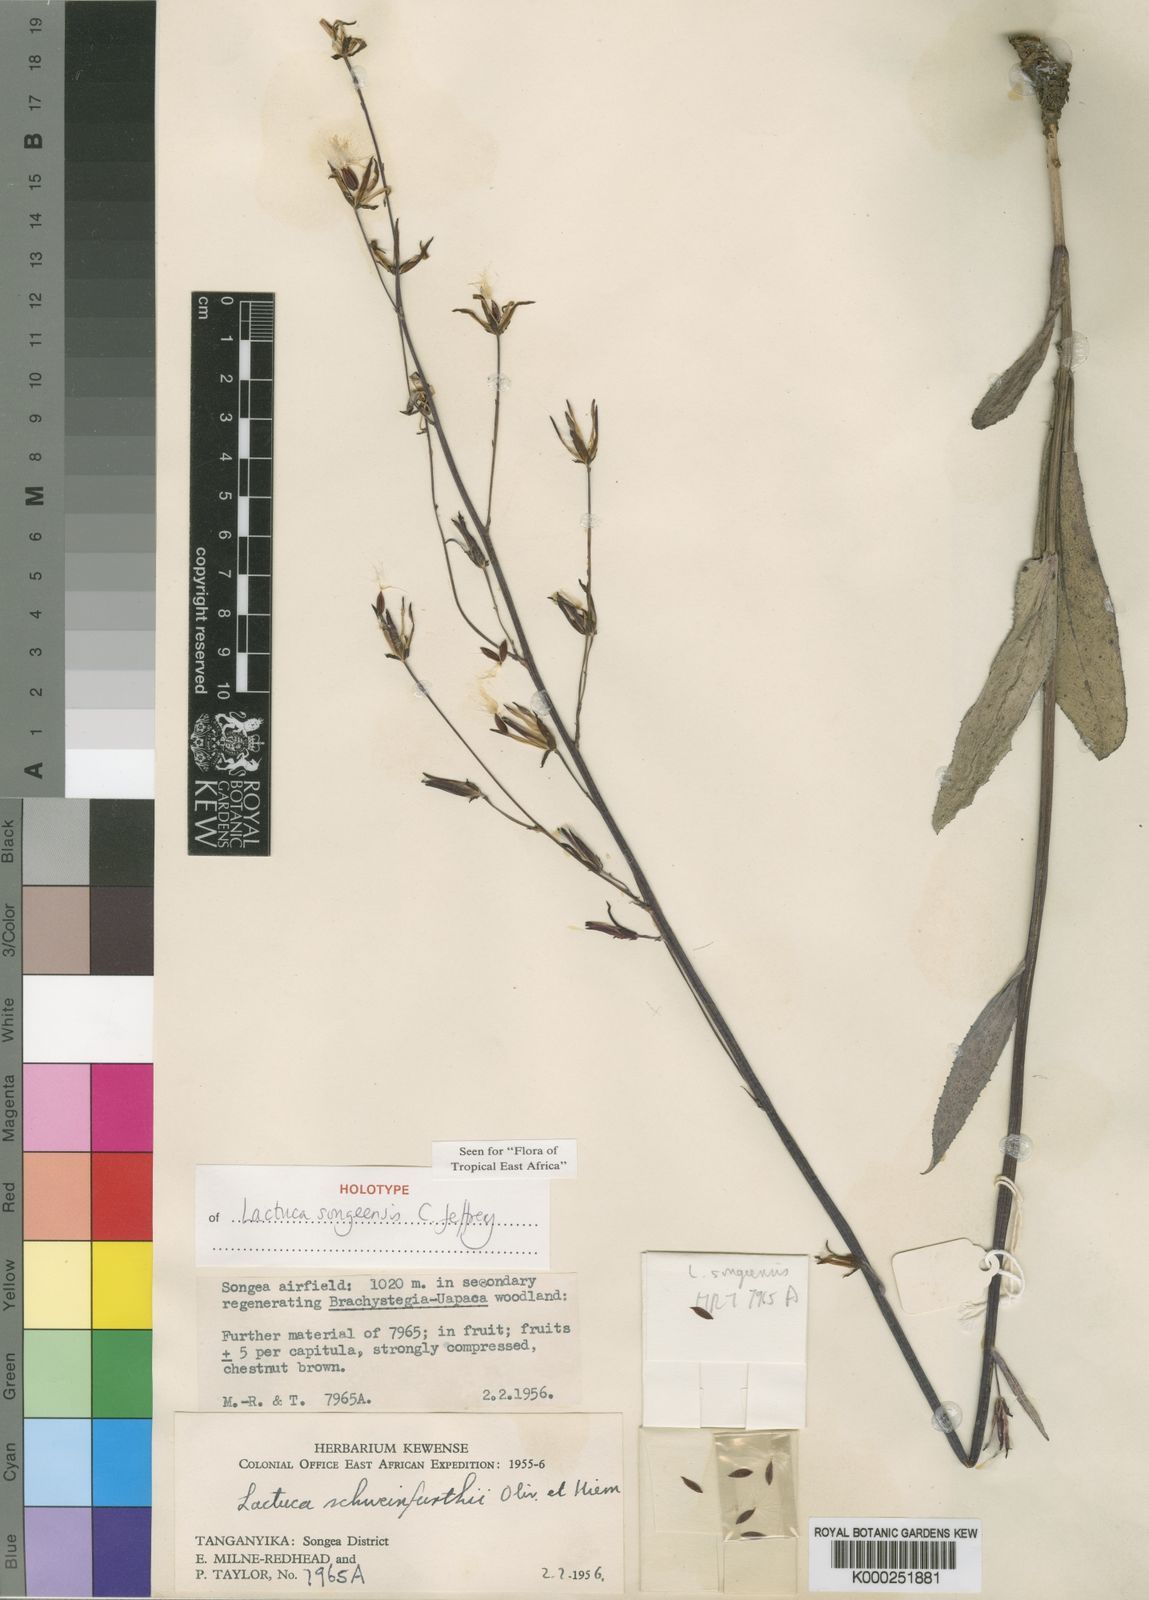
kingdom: Plantae
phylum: Tracheophyta
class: Magnoliopsida
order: Asterales
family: Asteraceae
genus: Lactuca
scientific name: Lactuca songeensis
